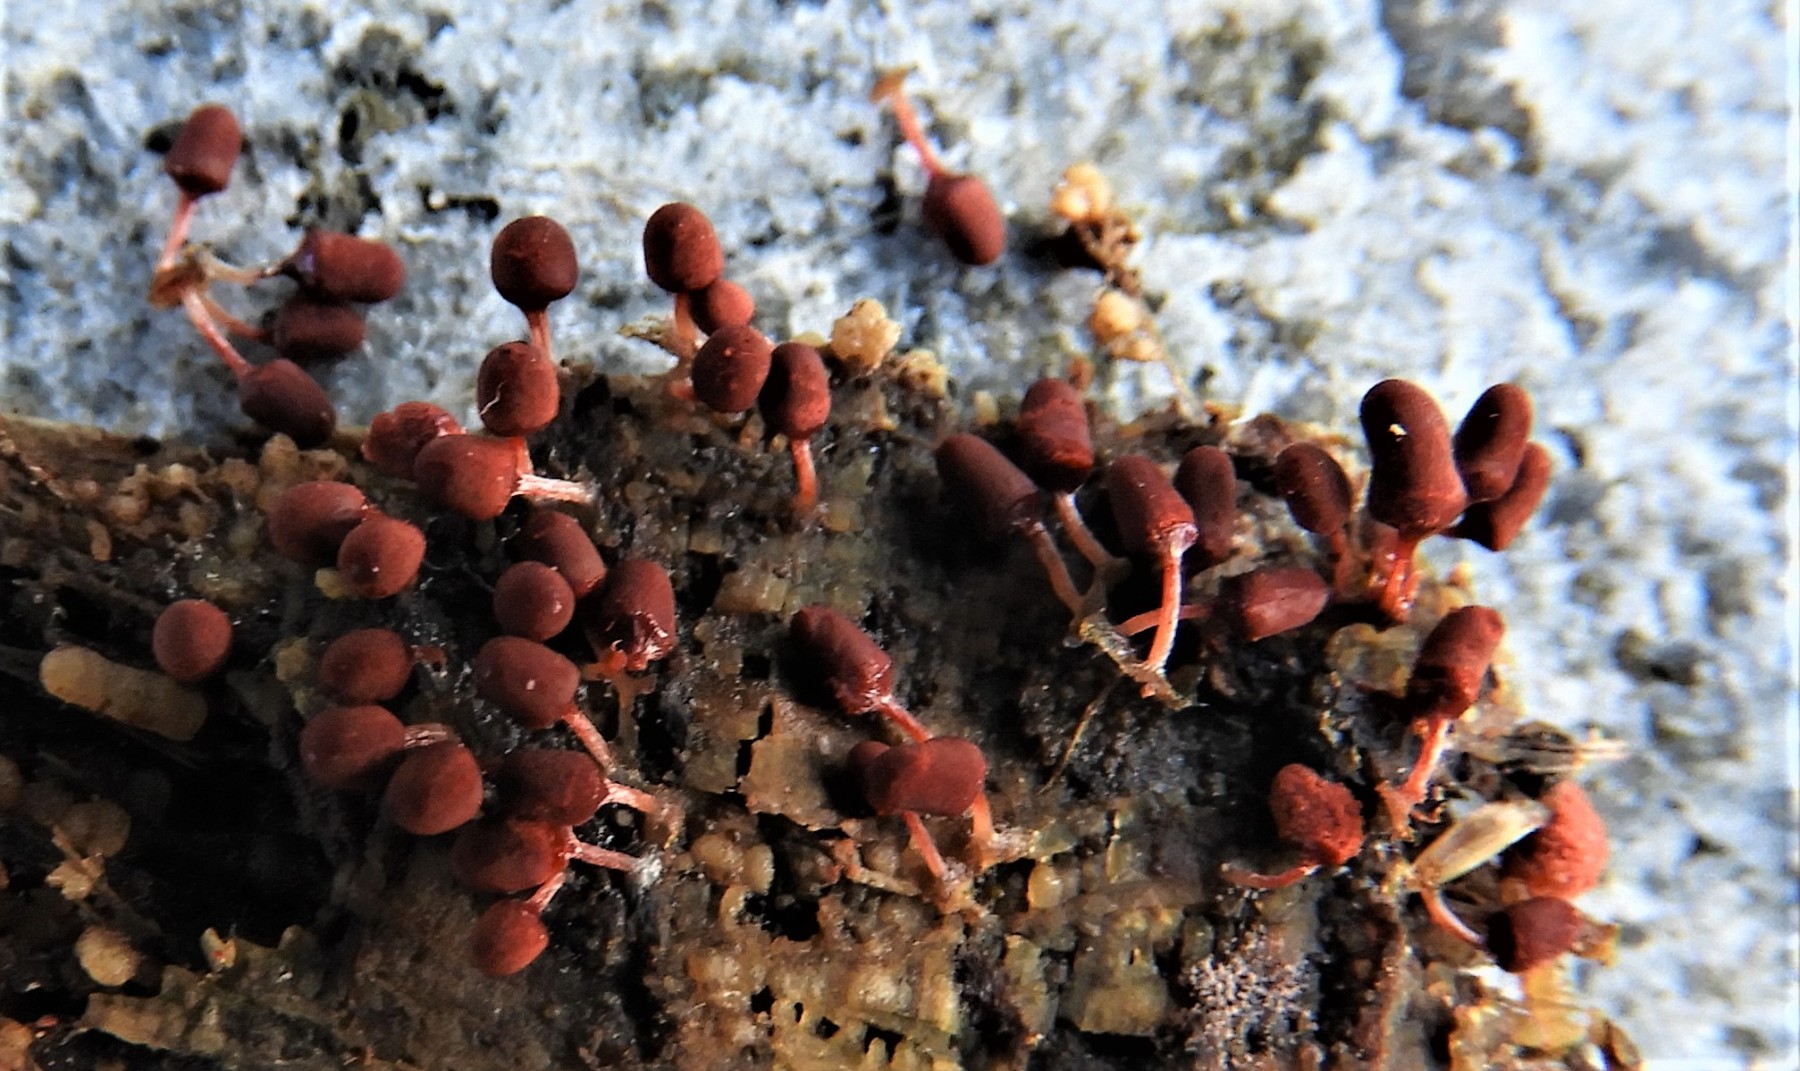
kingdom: Protozoa
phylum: Mycetozoa
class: Myxomycetes
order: Trichiales
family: Arcyriaceae
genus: Arcyria
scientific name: Arcyria denudata
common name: karminrød skålsvøb
